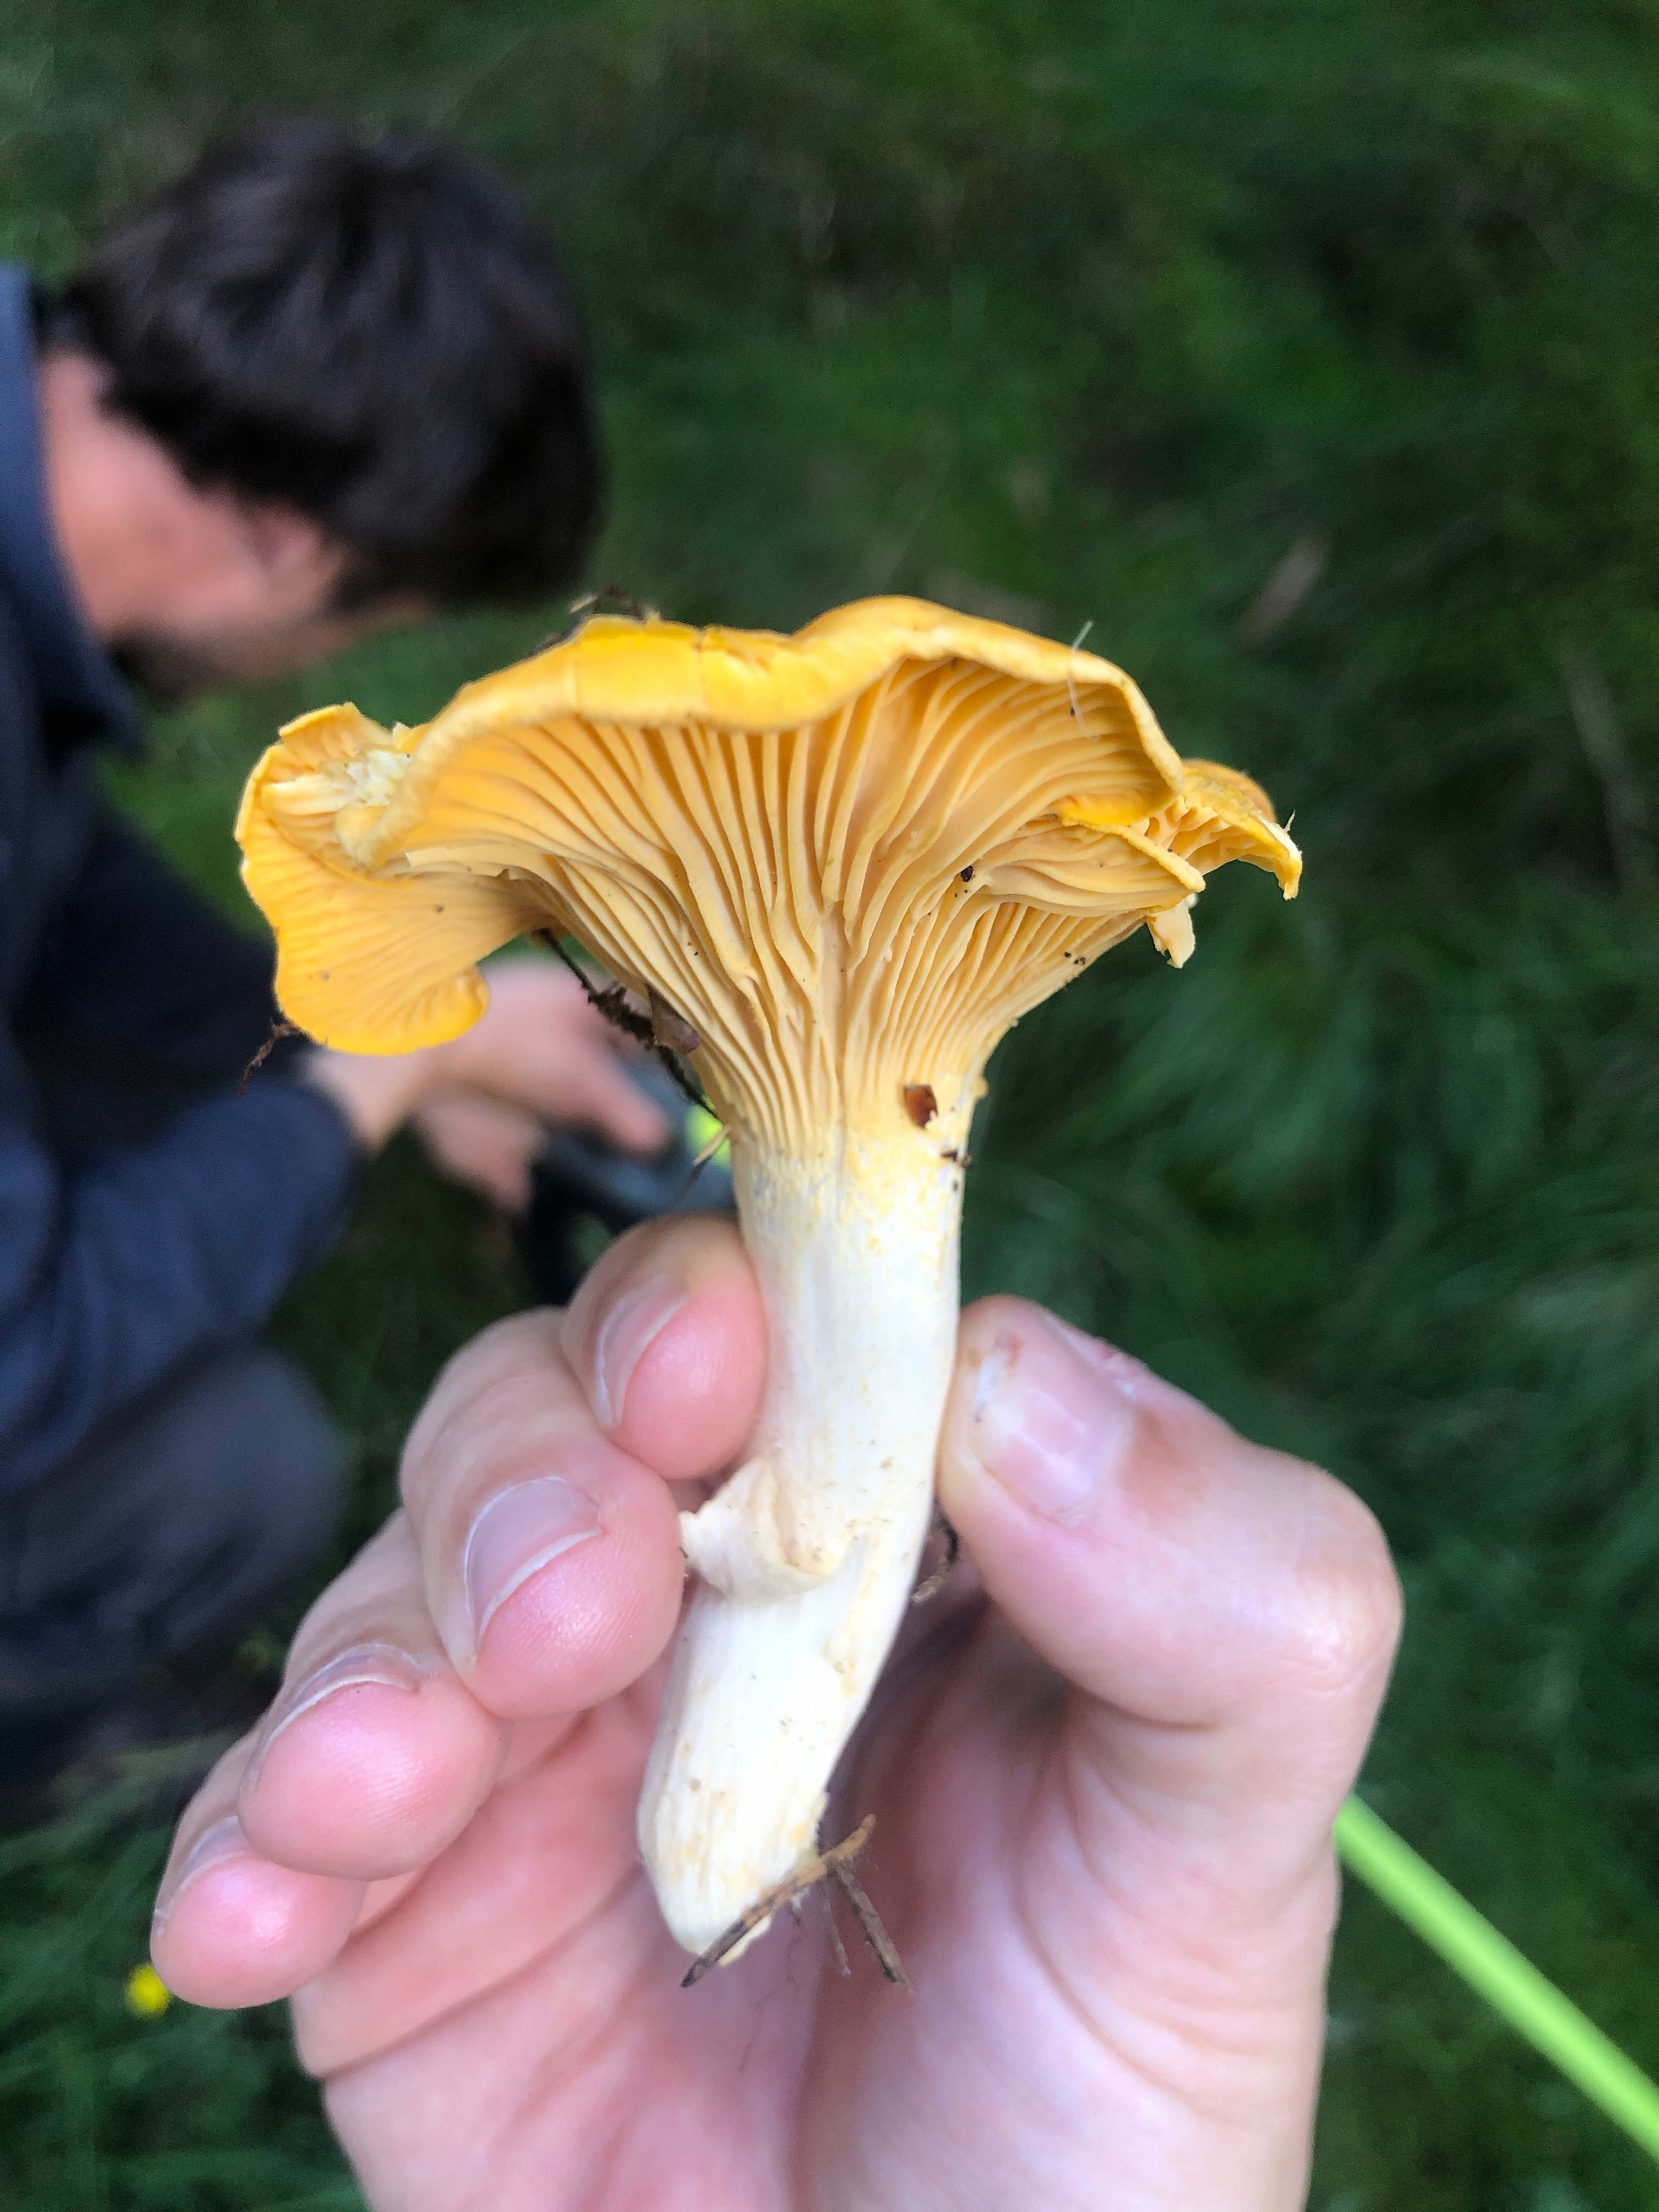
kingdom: Fungi
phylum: Basidiomycota
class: Agaricomycetes
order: Cantharellales
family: Hydnaceae
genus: Cantharellus
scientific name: Cantharellus
